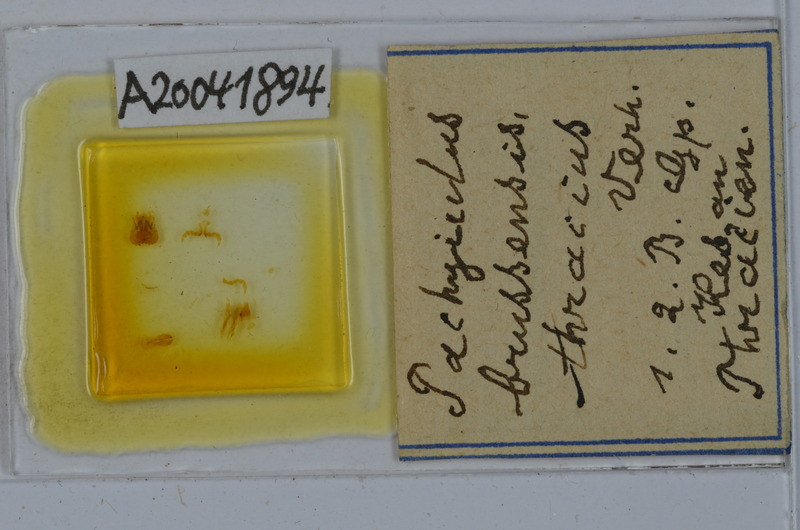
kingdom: Animalia
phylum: Arthropoda
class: Diplopoda
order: Julida
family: Julidae
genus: Pachyiulus
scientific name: Pachyiulus brussensis
